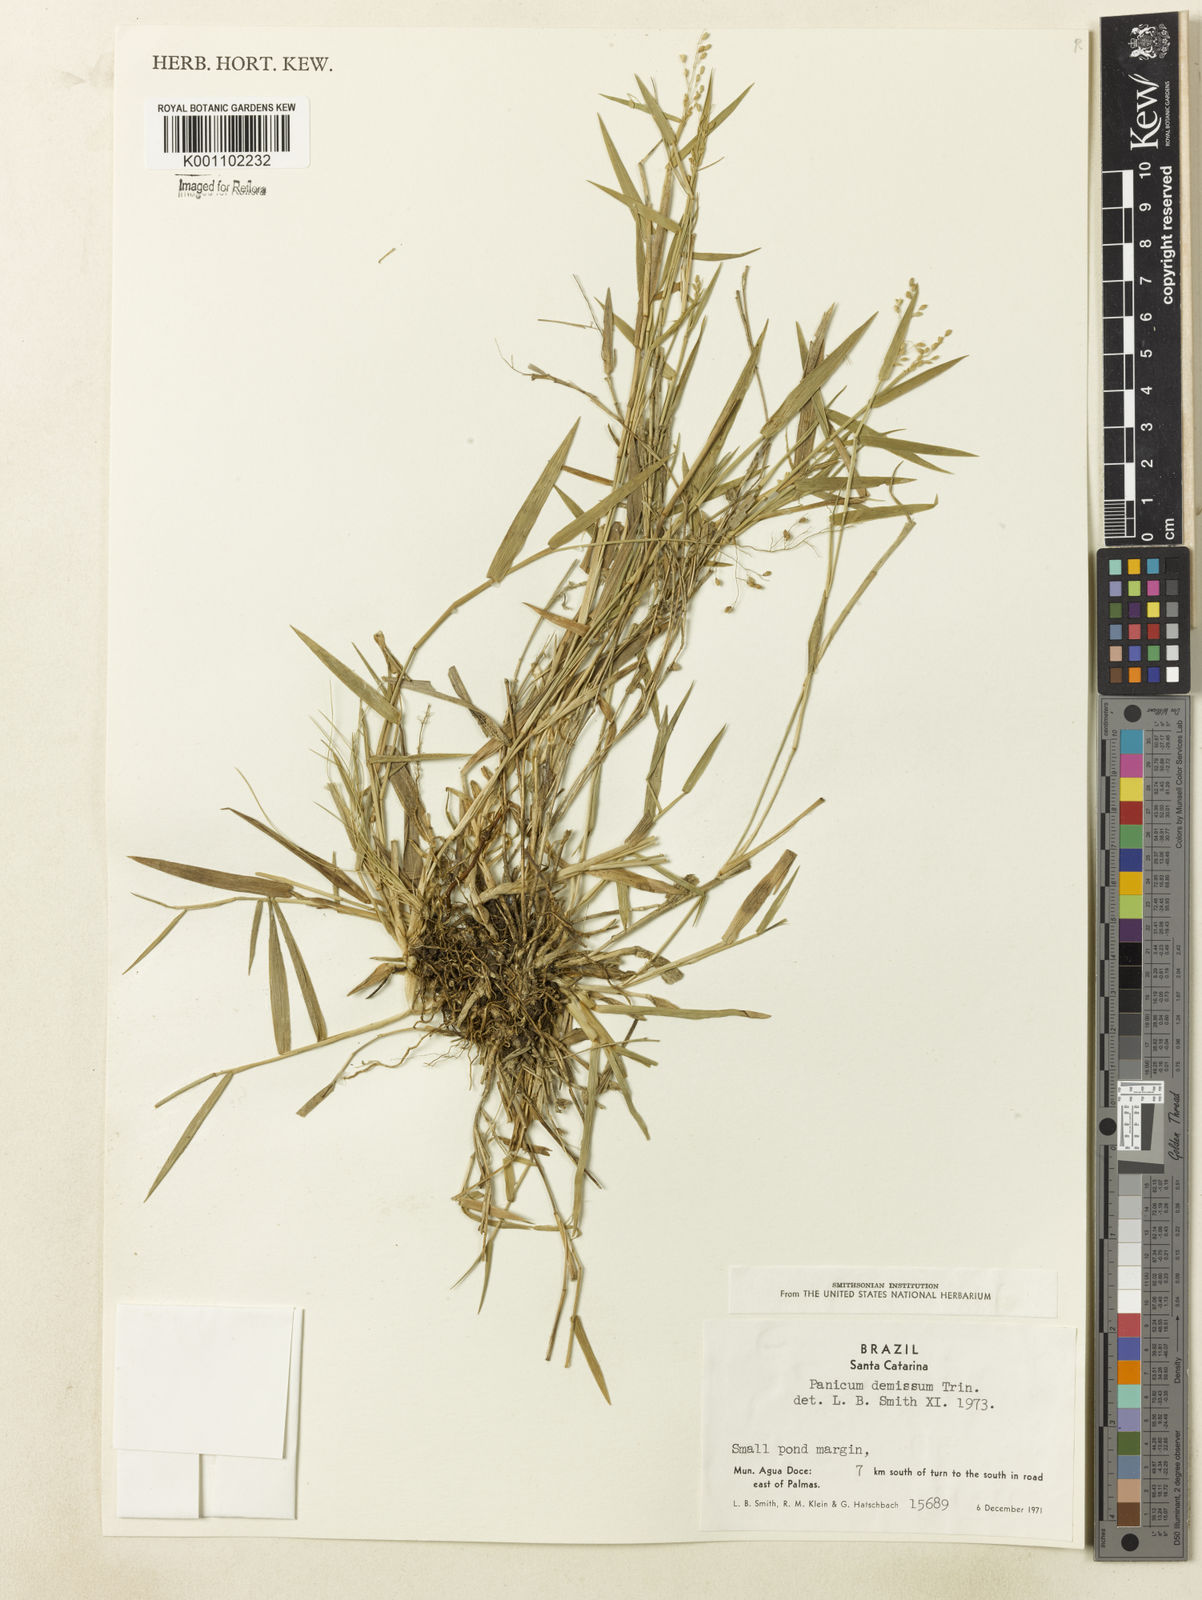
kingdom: Plantae
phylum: Tracheophyta
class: Liliopsida
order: Poales
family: Poaceae
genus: Dichanthelium
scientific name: Dichanthelium sabulorum
